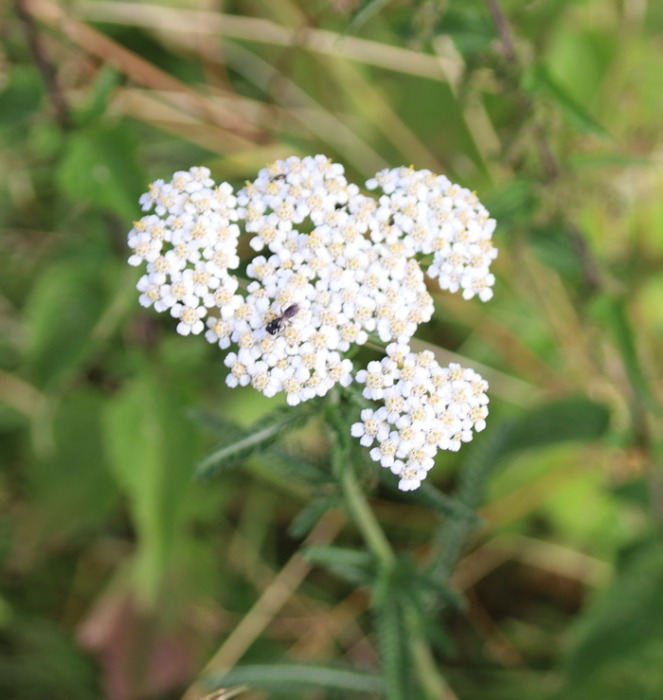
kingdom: Plantae
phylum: Tracheophyta
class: Magnoliopsida
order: Asterales
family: Asteraceae
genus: Achillea
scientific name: Achillea millefolium
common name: Almindelig røllike
